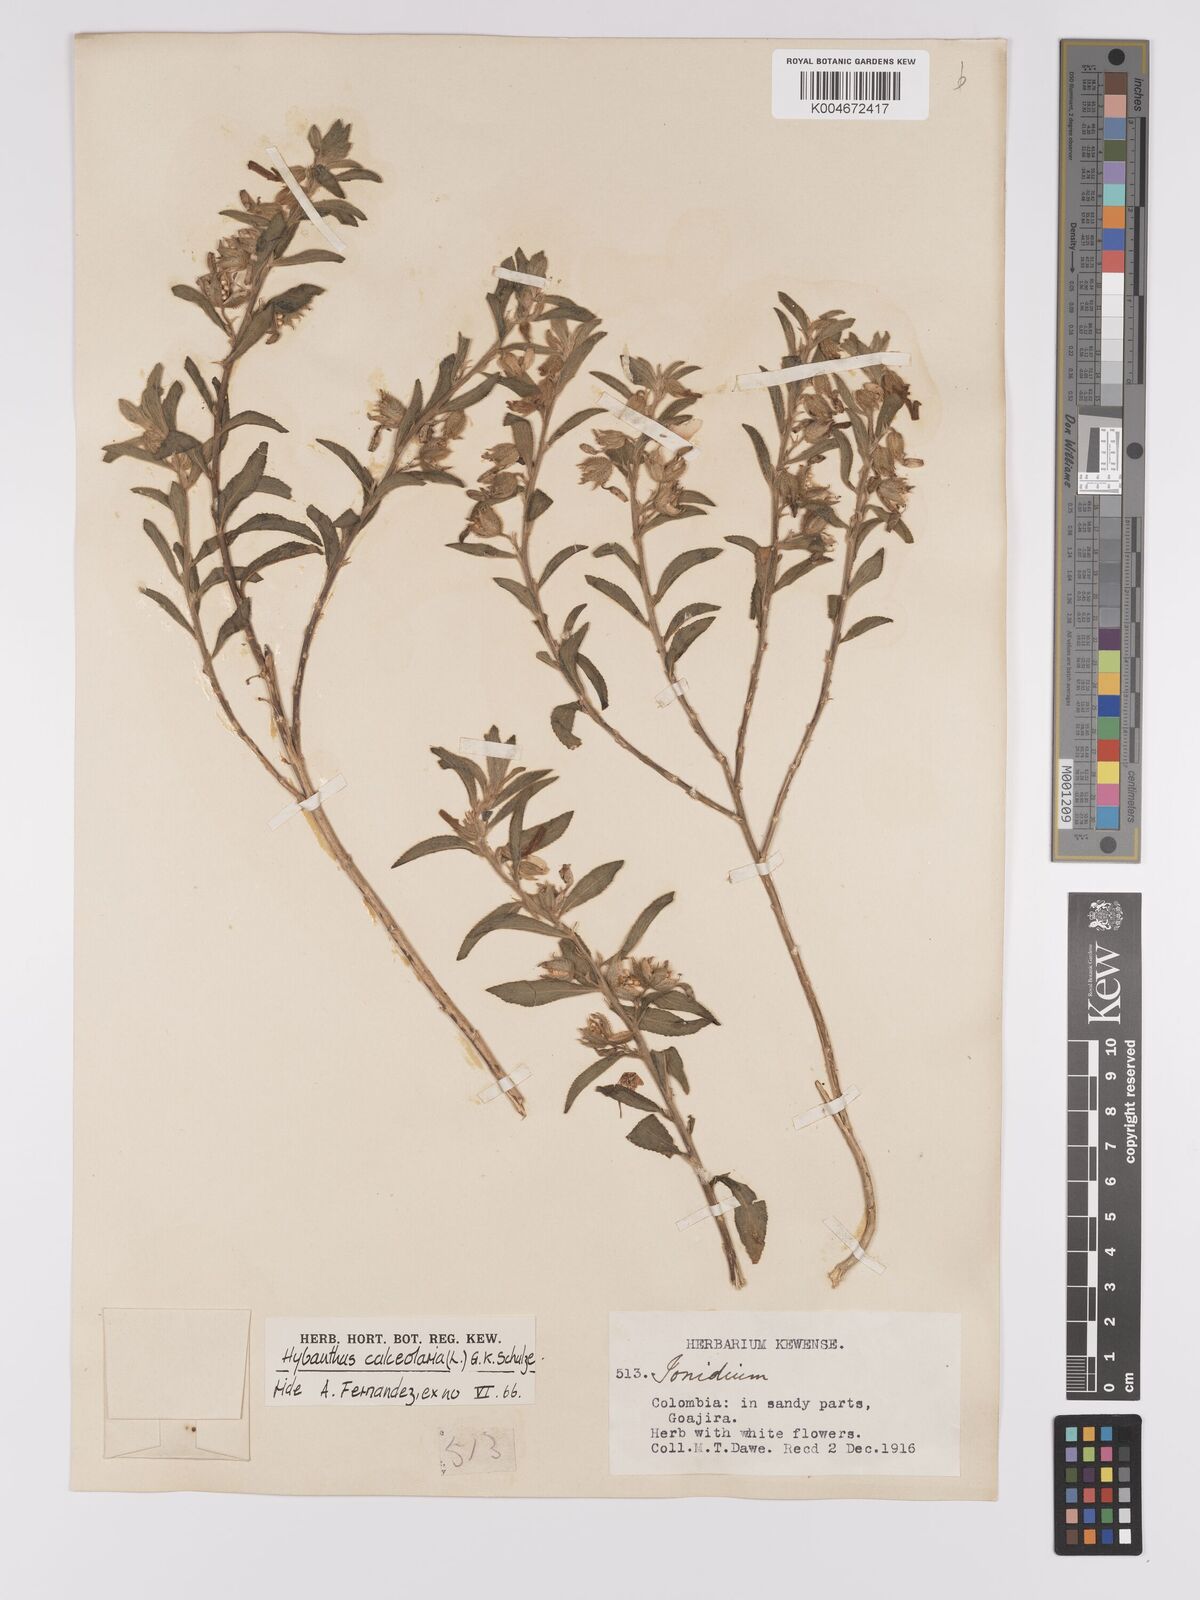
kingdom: Plantae
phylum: Tracheophyta
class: Magnoliopsida
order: Malpighiales
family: Violaceae
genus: Pombalia
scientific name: Pombalia calceolaria
